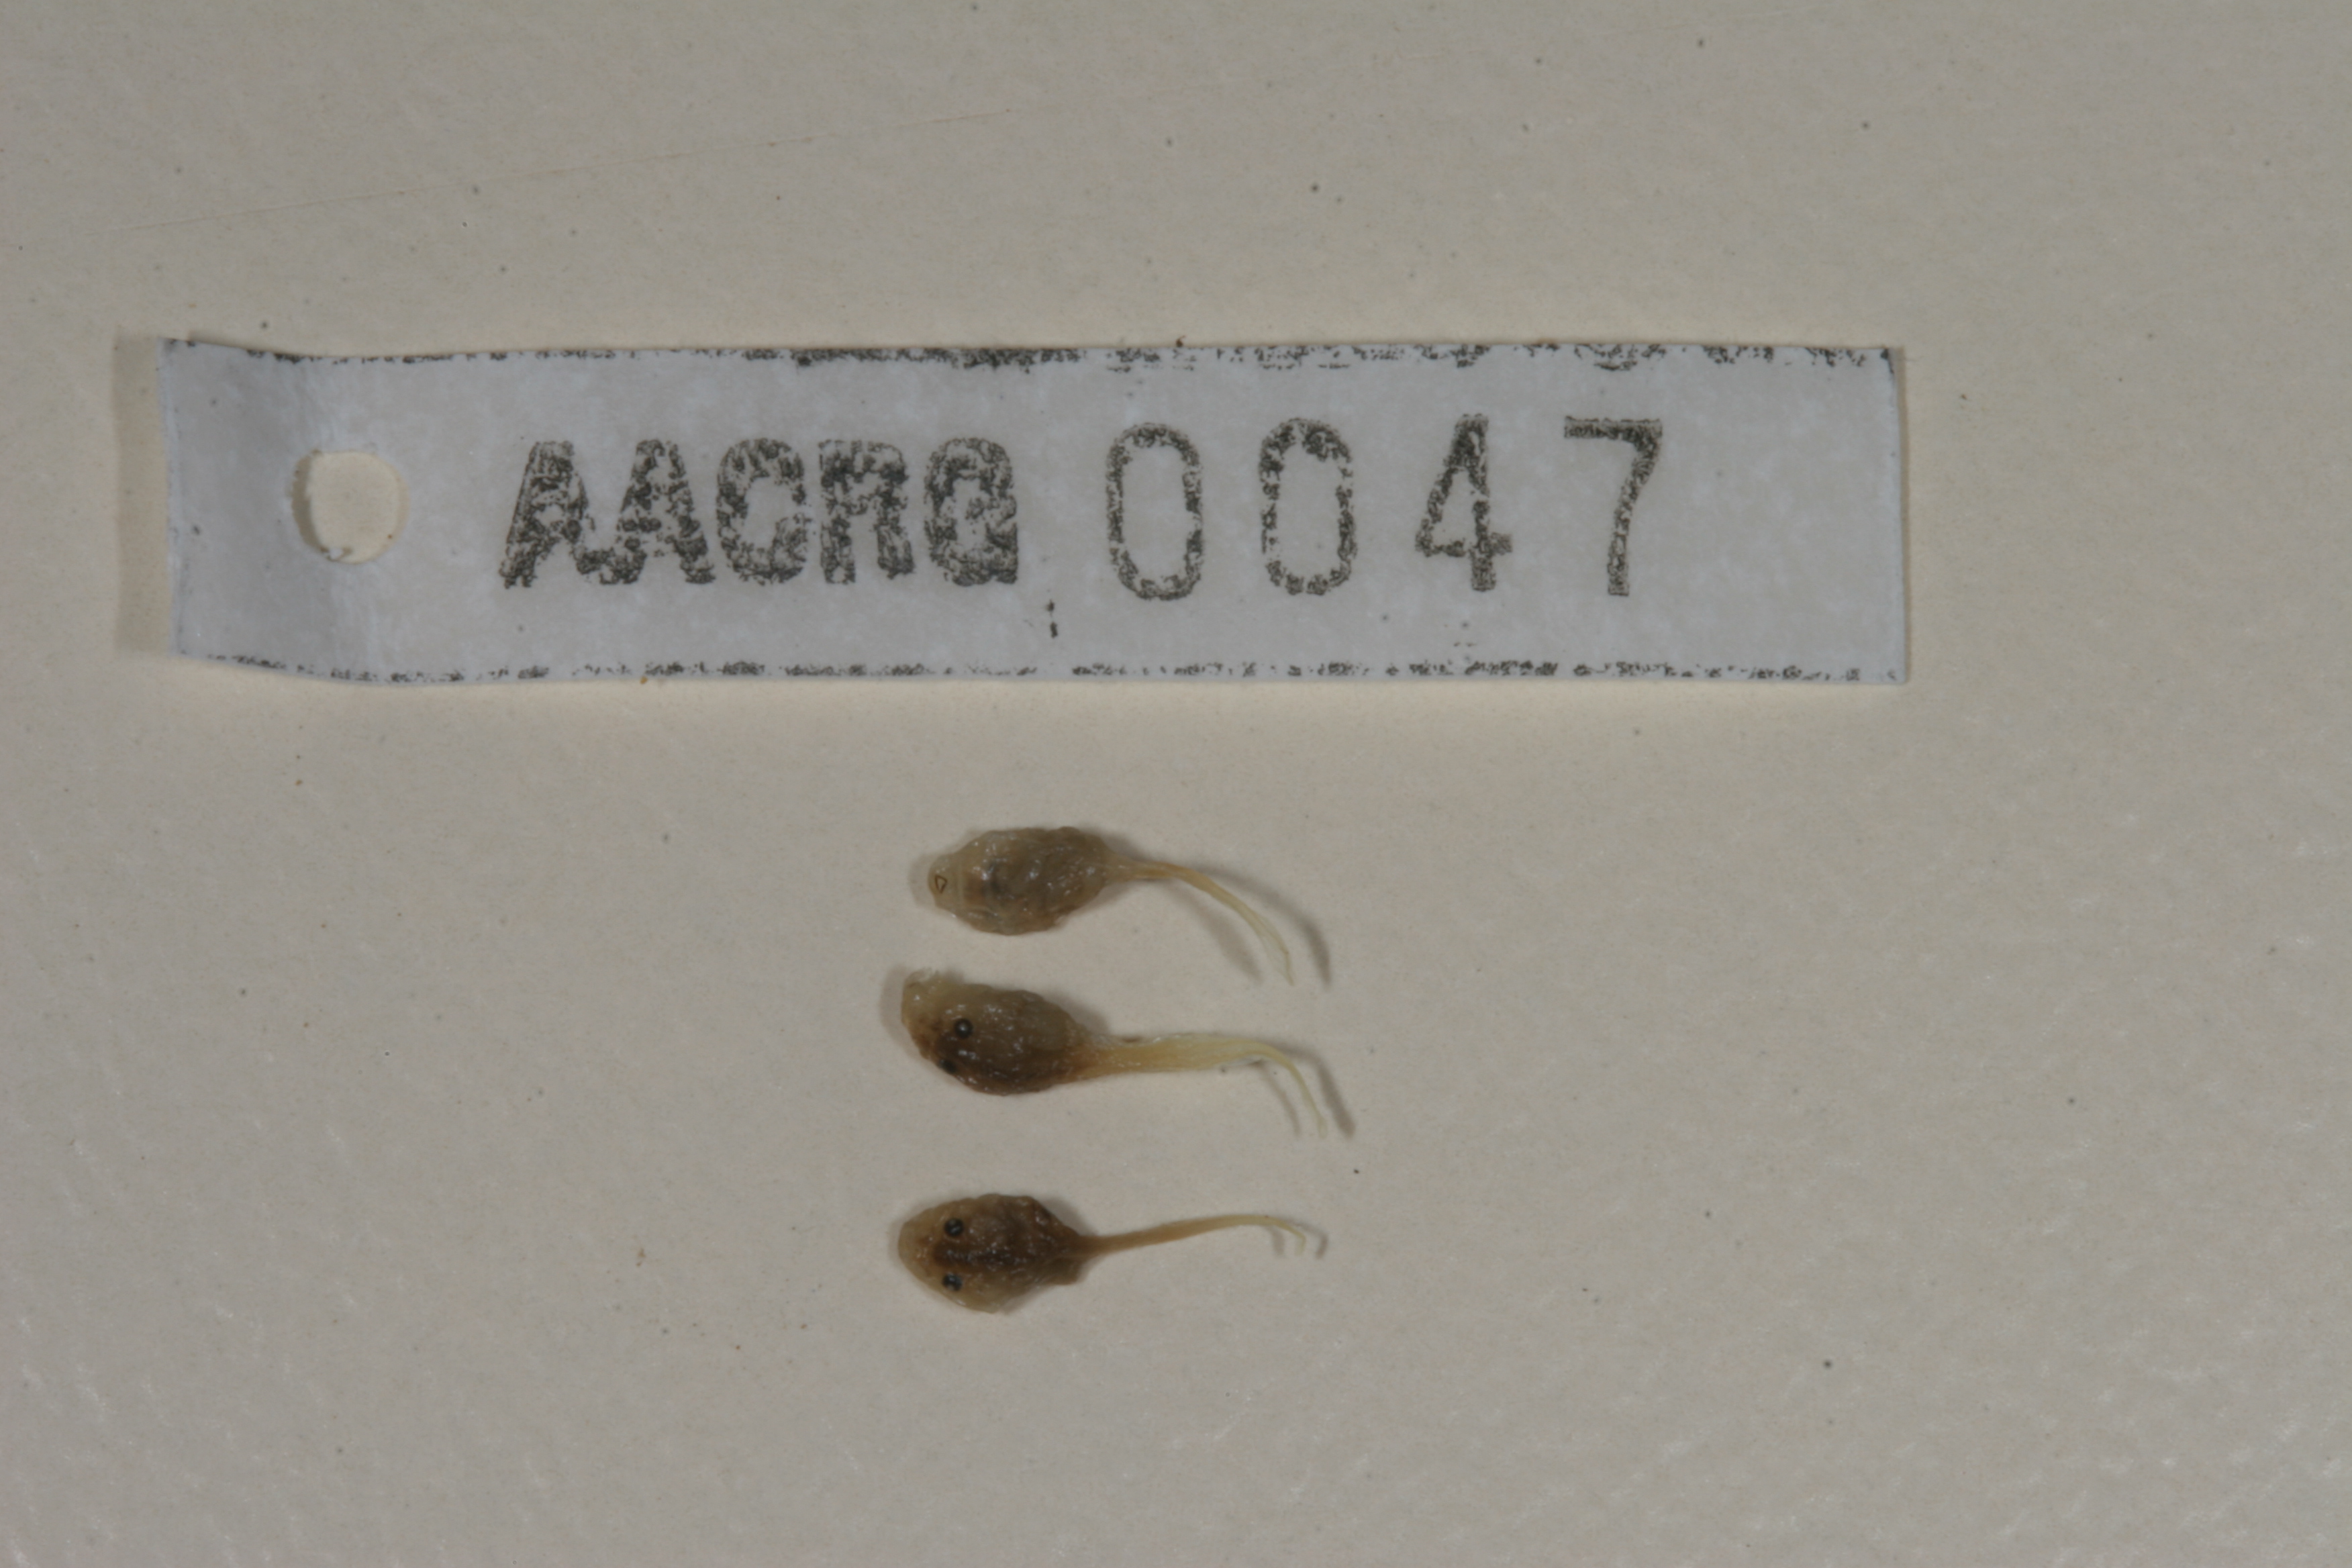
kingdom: Animalia
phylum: Chordata
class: Amphibia
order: Anura
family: Bufonidae
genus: Sclerophrys
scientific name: Sclerophrys garmani
